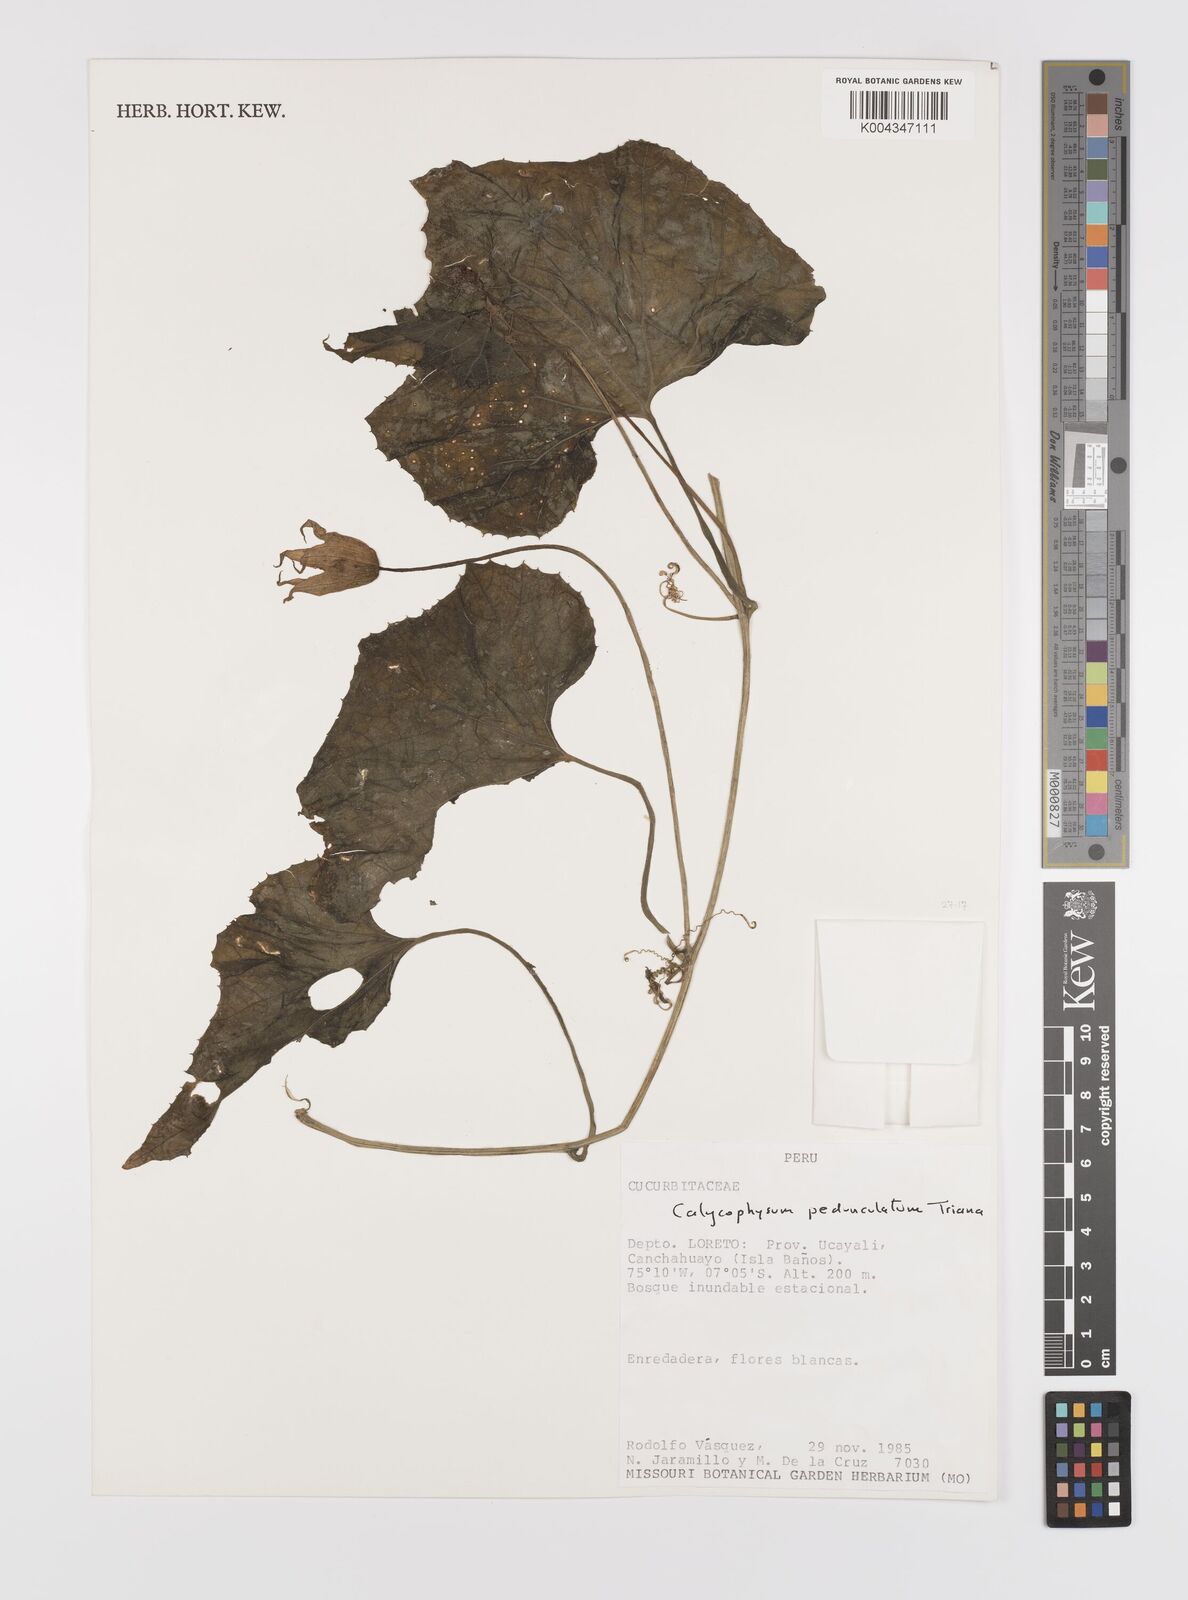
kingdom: Plantae
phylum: Tracheophyta
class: Magnoliopsida
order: Cucurbitales
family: Cucurbitaceae
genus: Calycophysum
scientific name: Calycophysum pedunculatum
